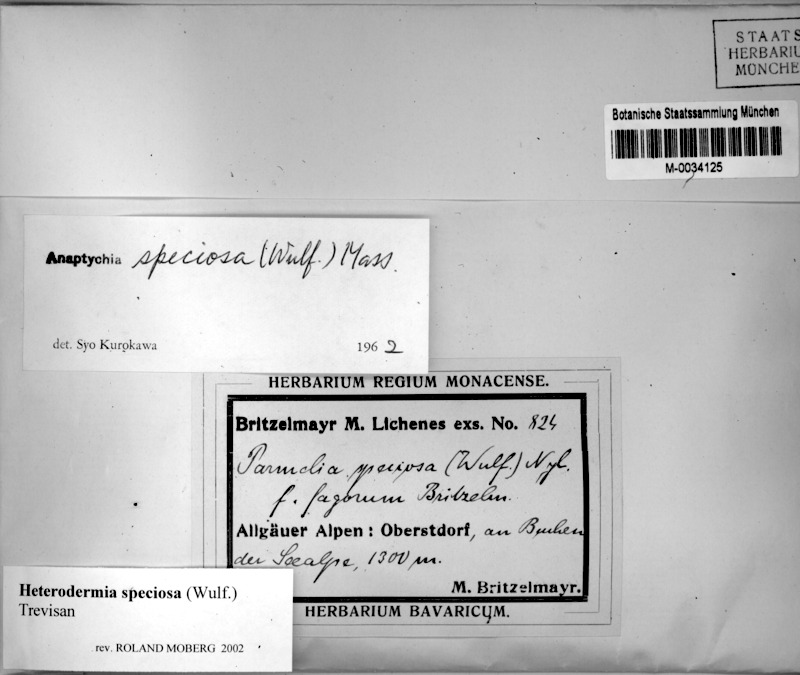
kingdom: Fungi
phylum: Ascomycota
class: Lecanoromycetes
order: Caliciales
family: Physciaceae
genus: Heterodermia
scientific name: Heterodermia speciosa
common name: Powdered fringe lichen
